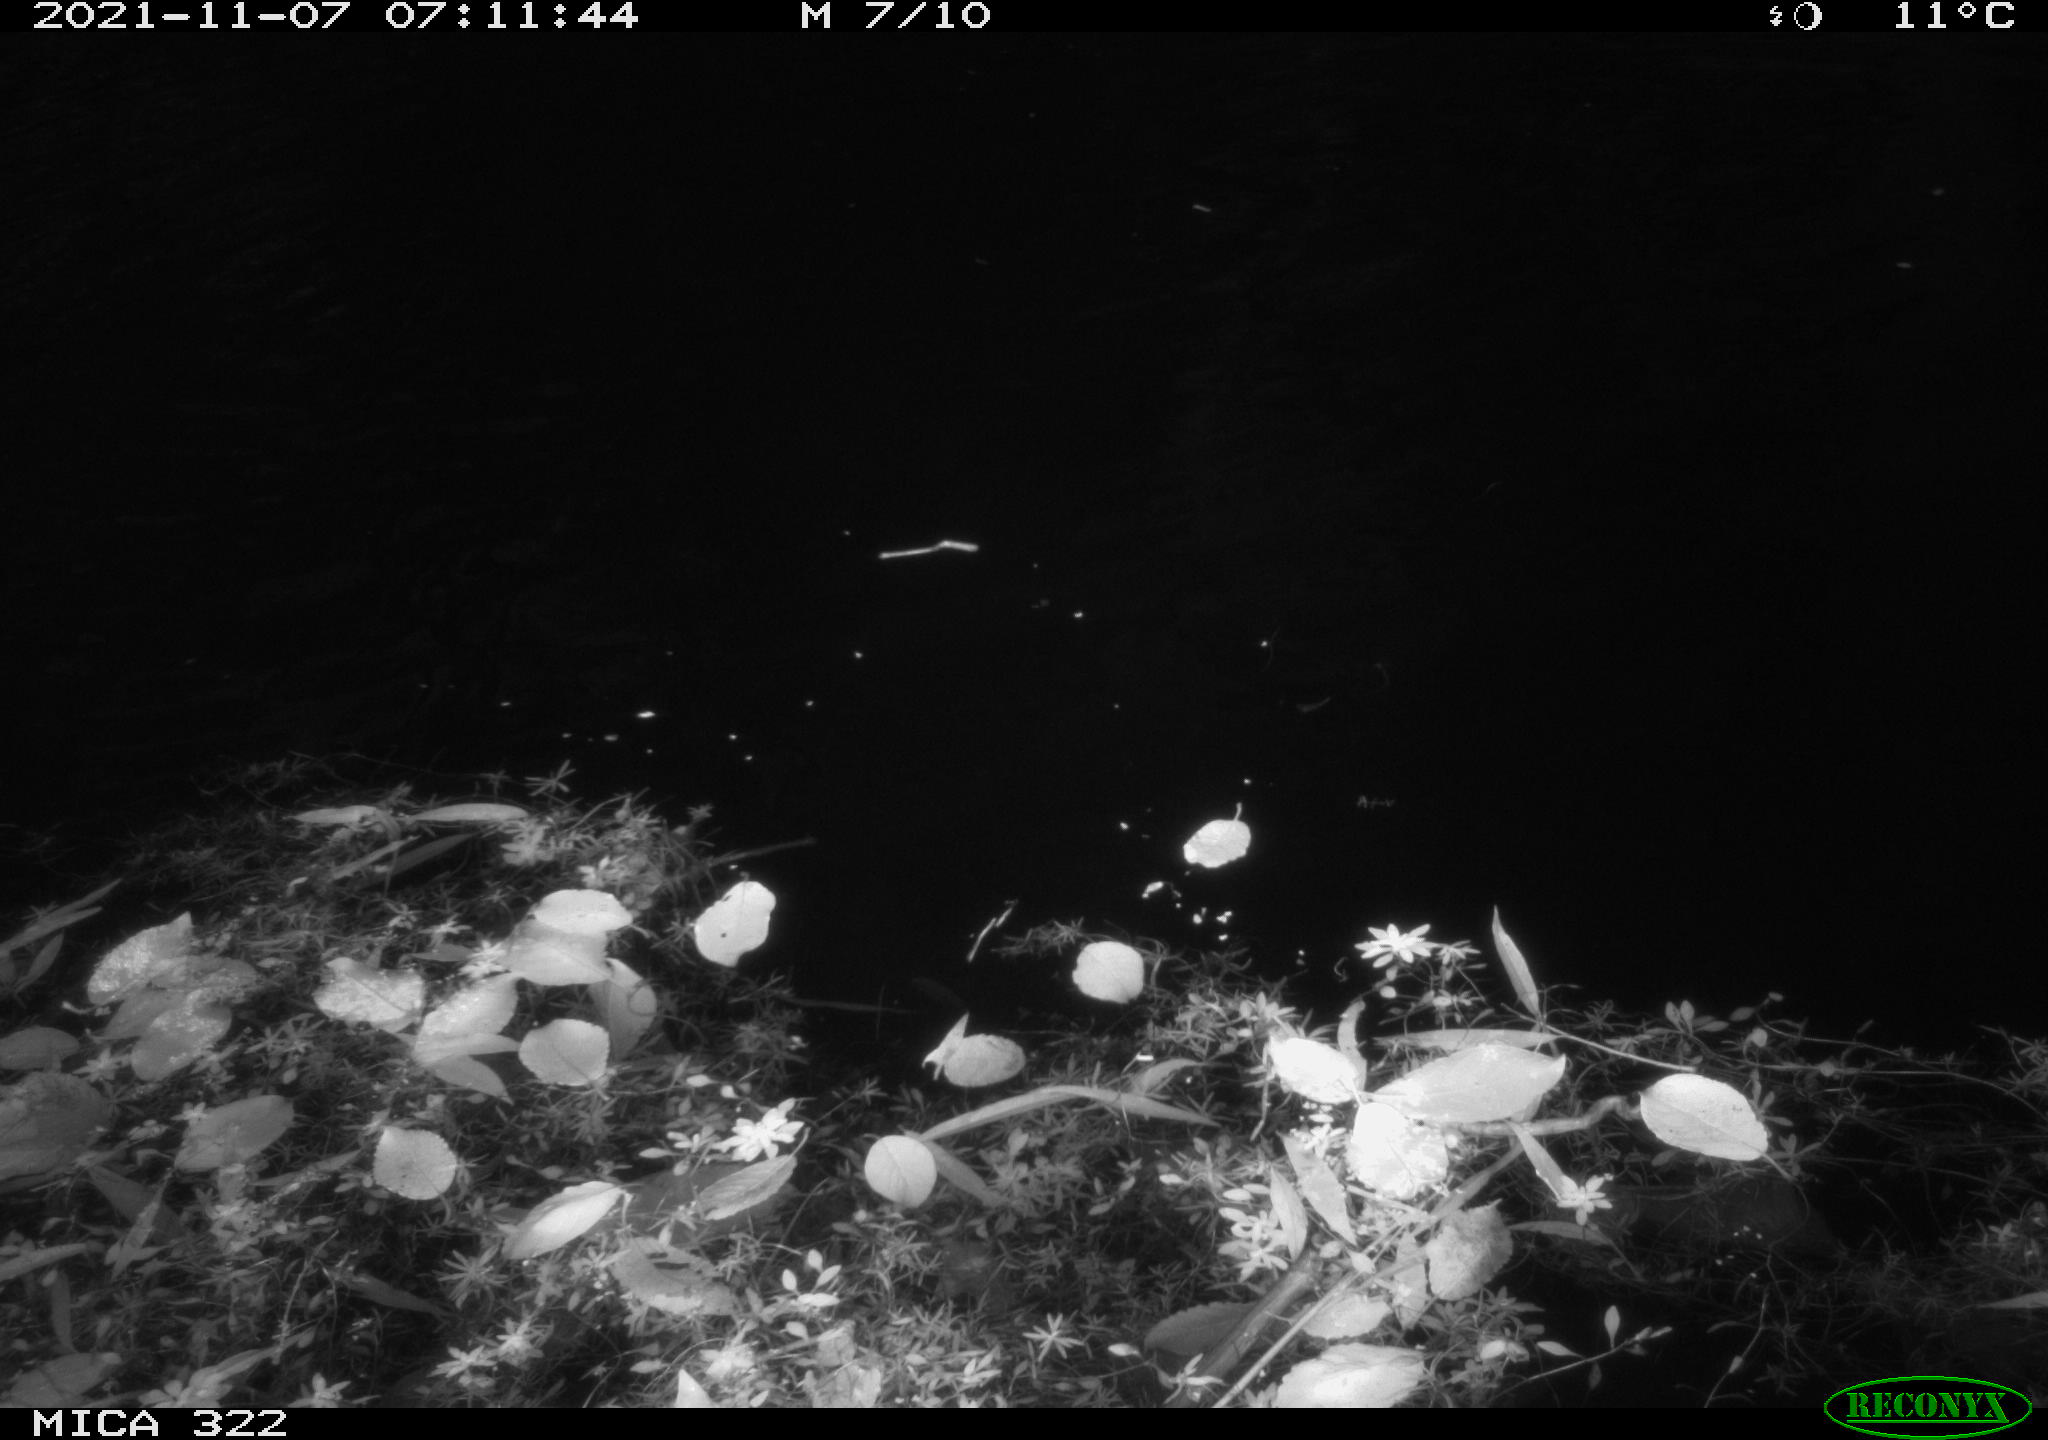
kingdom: Animalia
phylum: Chordata
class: Aves
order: Anseriformes
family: Anatidae
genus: Anas
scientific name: Anas platyrhynchos
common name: Mallard
